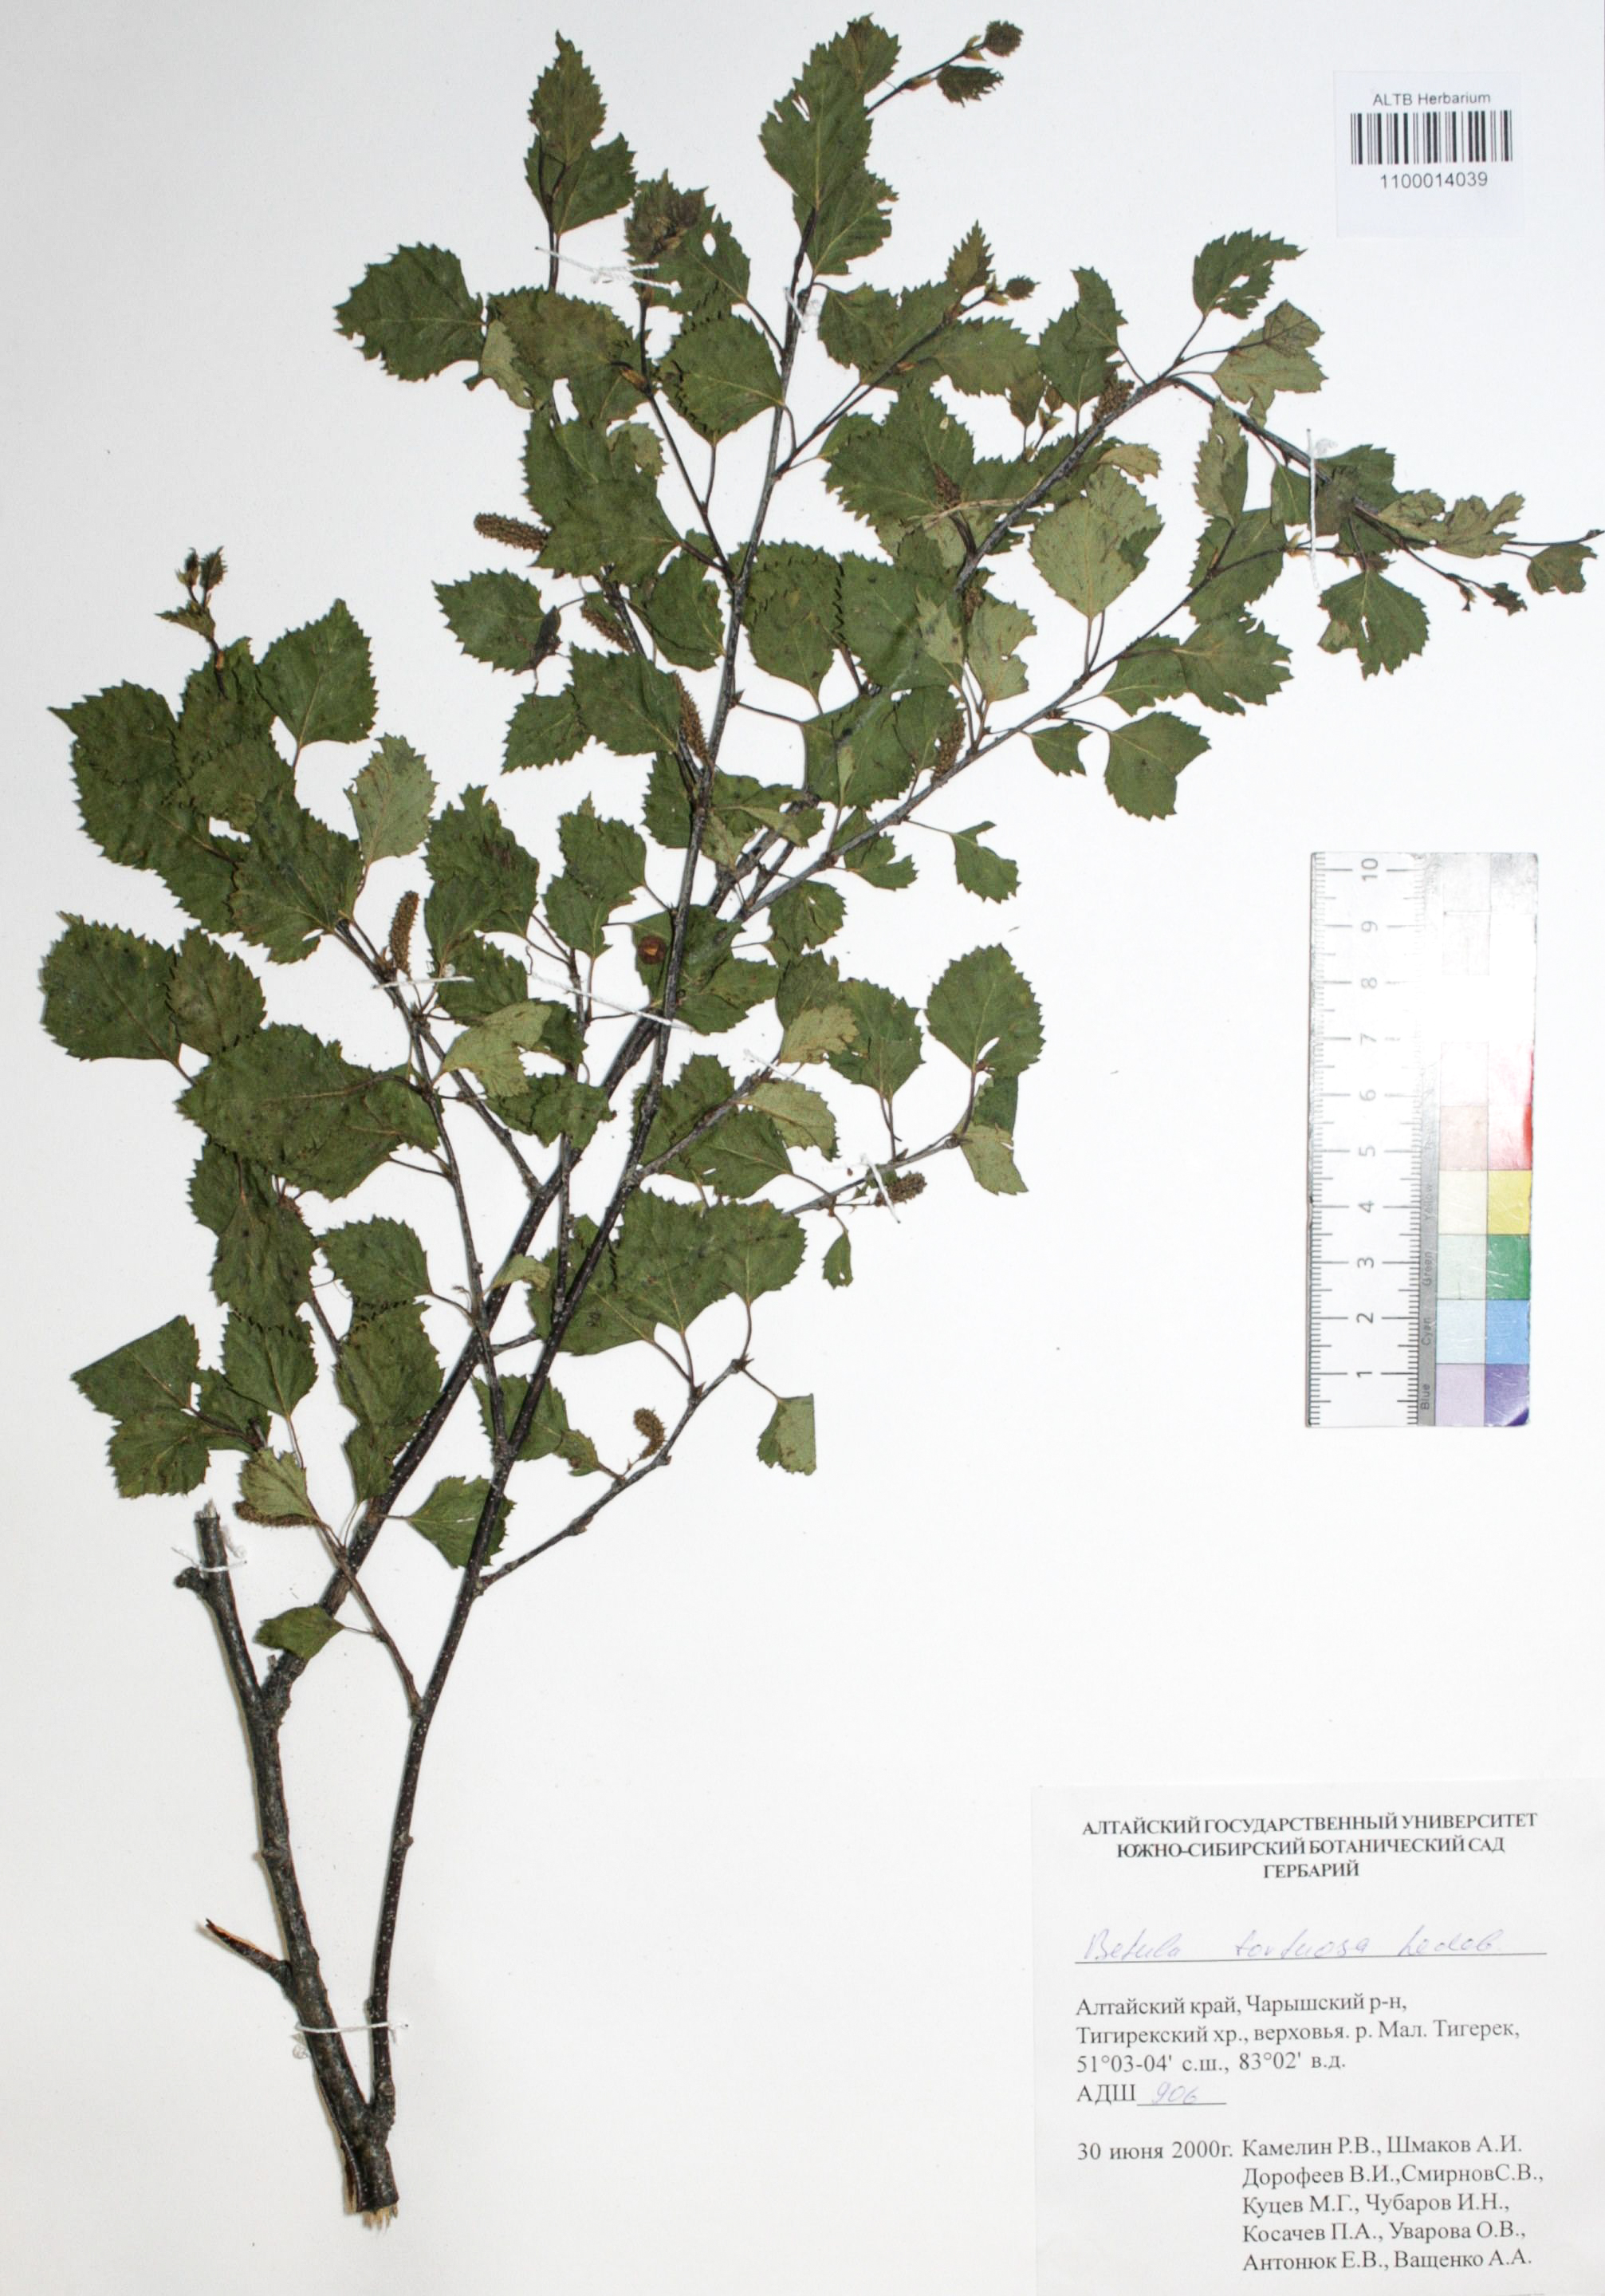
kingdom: Plantae
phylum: Tracheophyta
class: Magnoliopsida
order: Fagales
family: Betulaceae
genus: Betula
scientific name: Betula pubescens
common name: Downy birch
